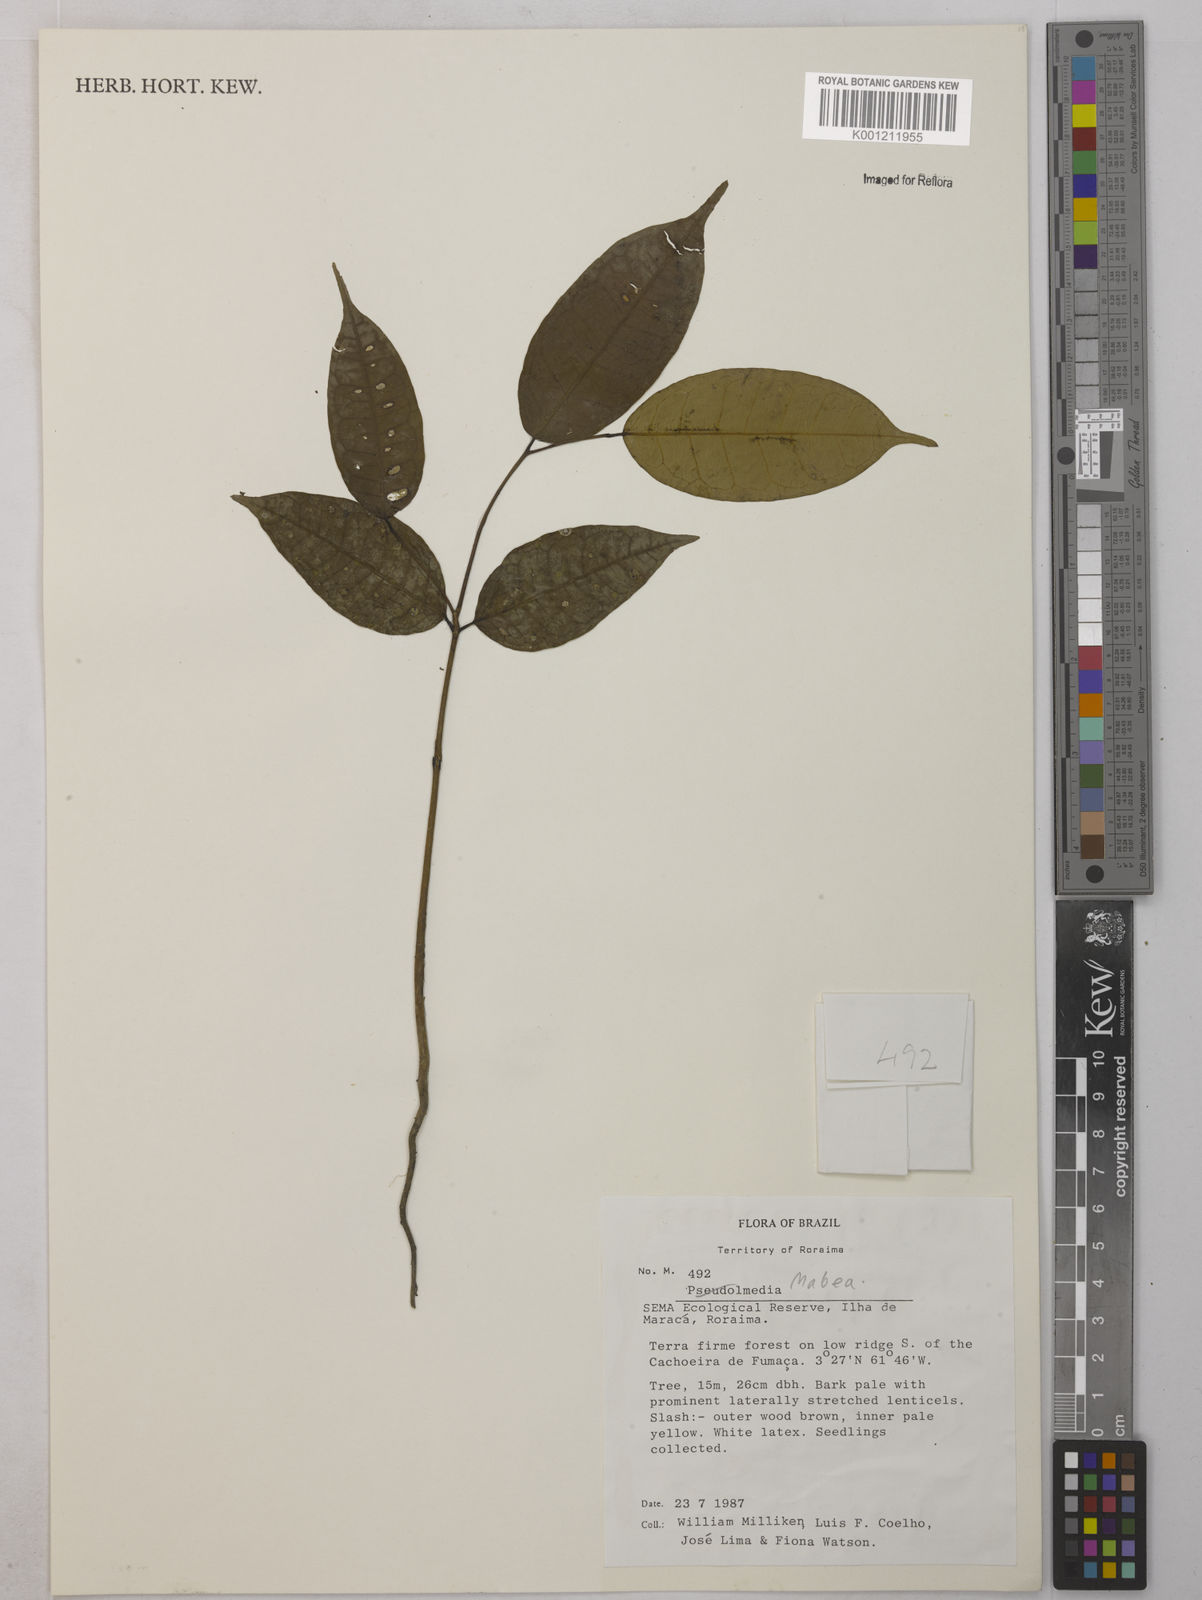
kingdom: Plantae
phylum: Tracheophyta
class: Magnoliopsida
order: Malpighiales
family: Euphorbiaceae
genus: Mabea
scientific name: Mabea
